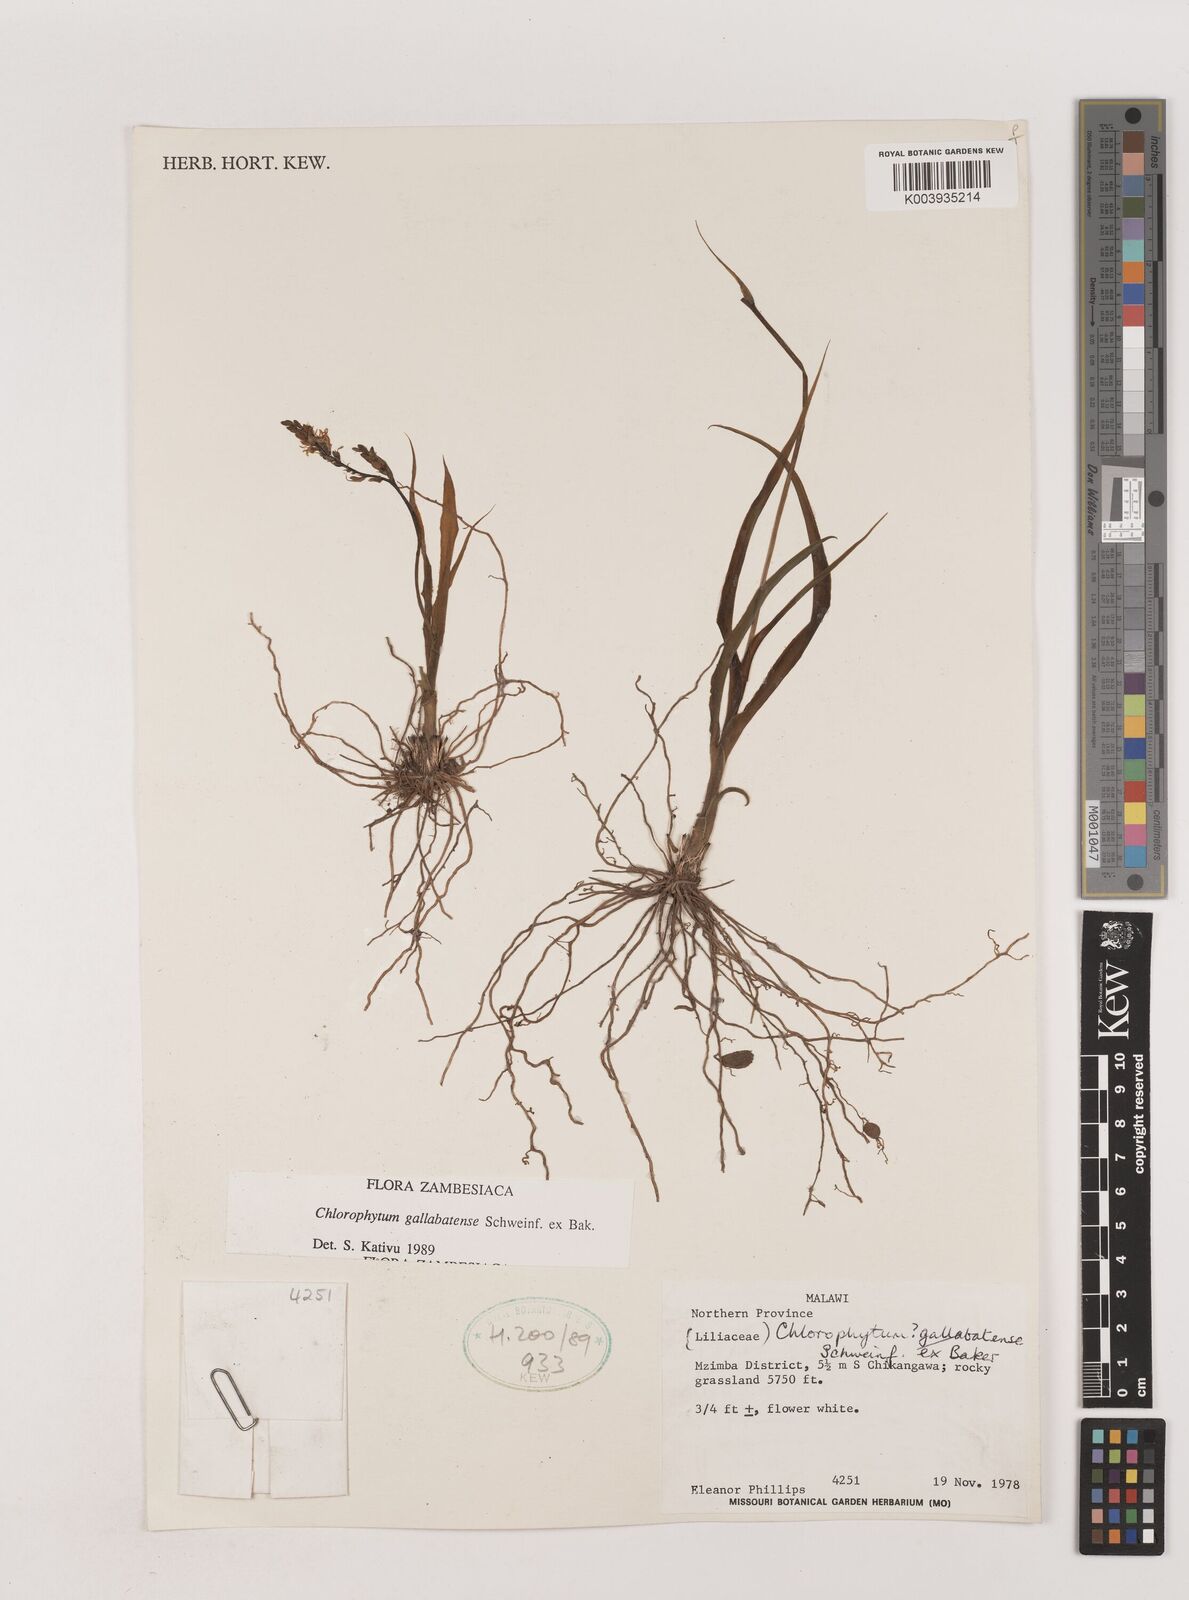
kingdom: Plantae
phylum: Tracheophyta
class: Liliopsida
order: Asparagales
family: Asparagaceae
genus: Chlorophytum
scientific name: Chlorophytum gallabatense
